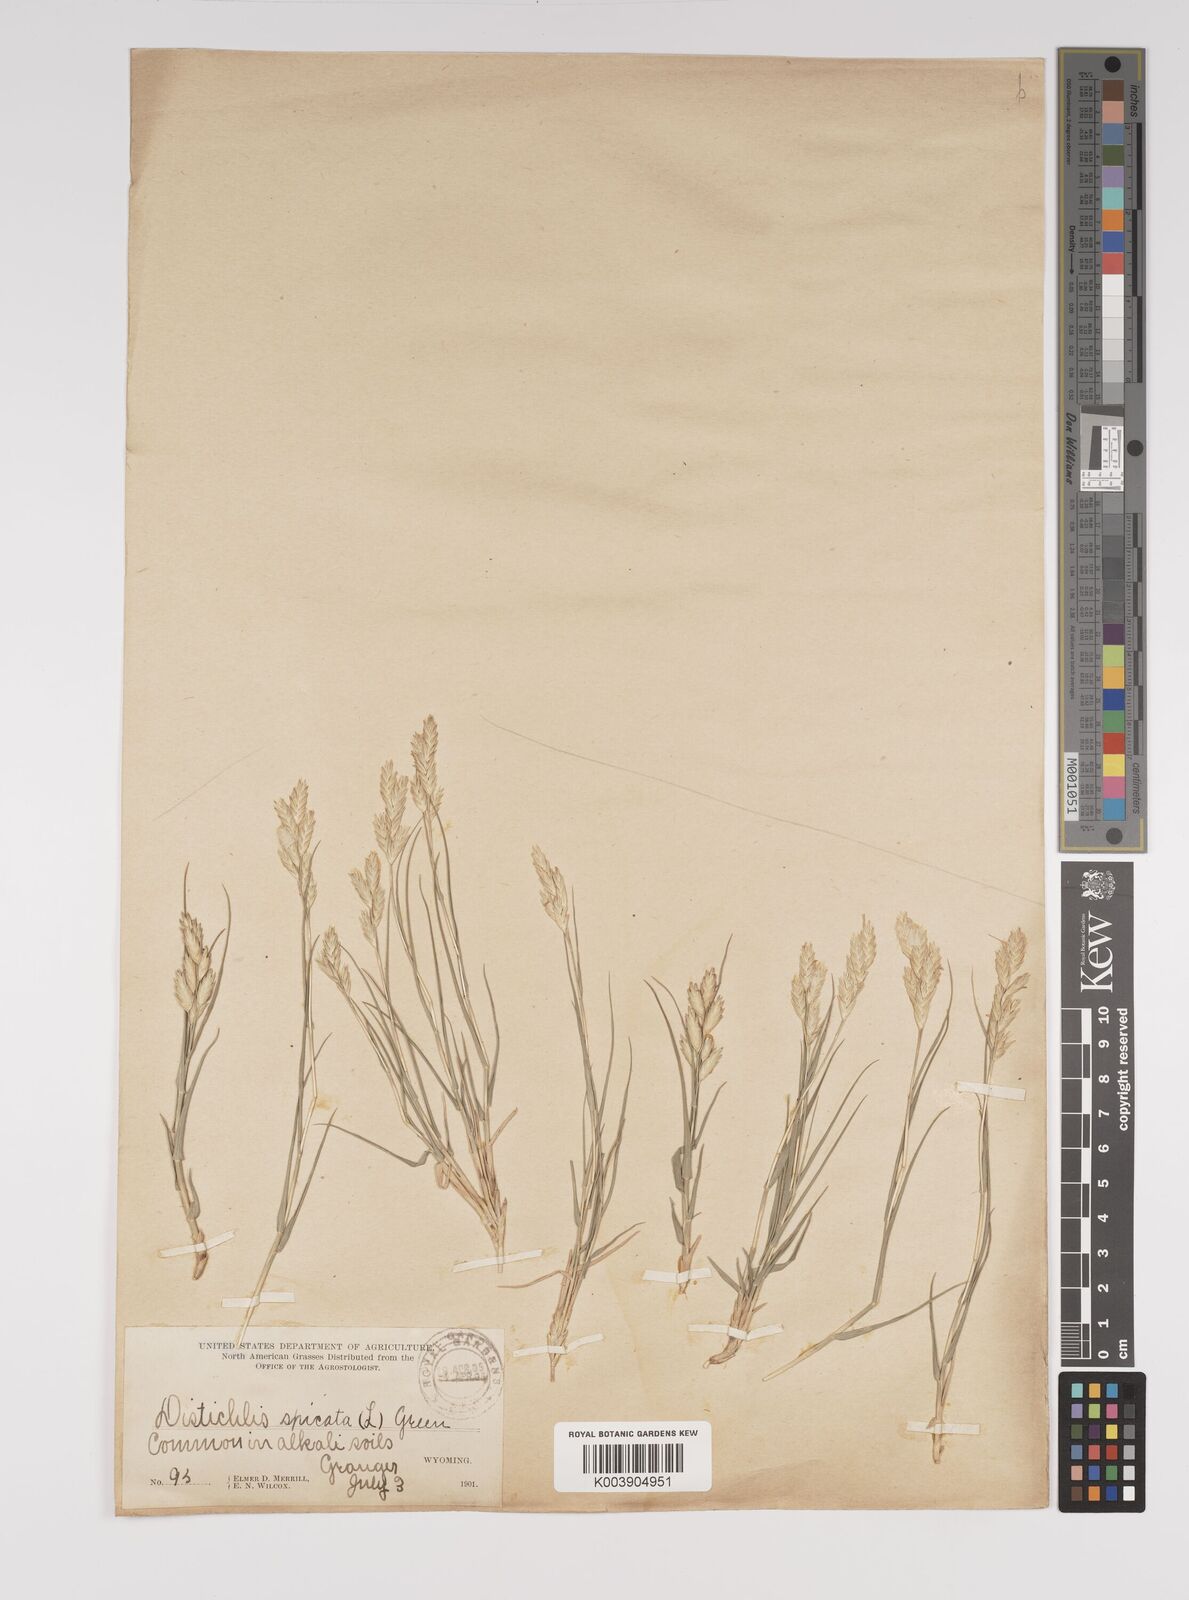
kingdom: Plantae
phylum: Tracheophyta
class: Liliopsida
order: Poales
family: Poaceae
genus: Distichlis
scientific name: Distichlis spicata
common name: Saltgrass
